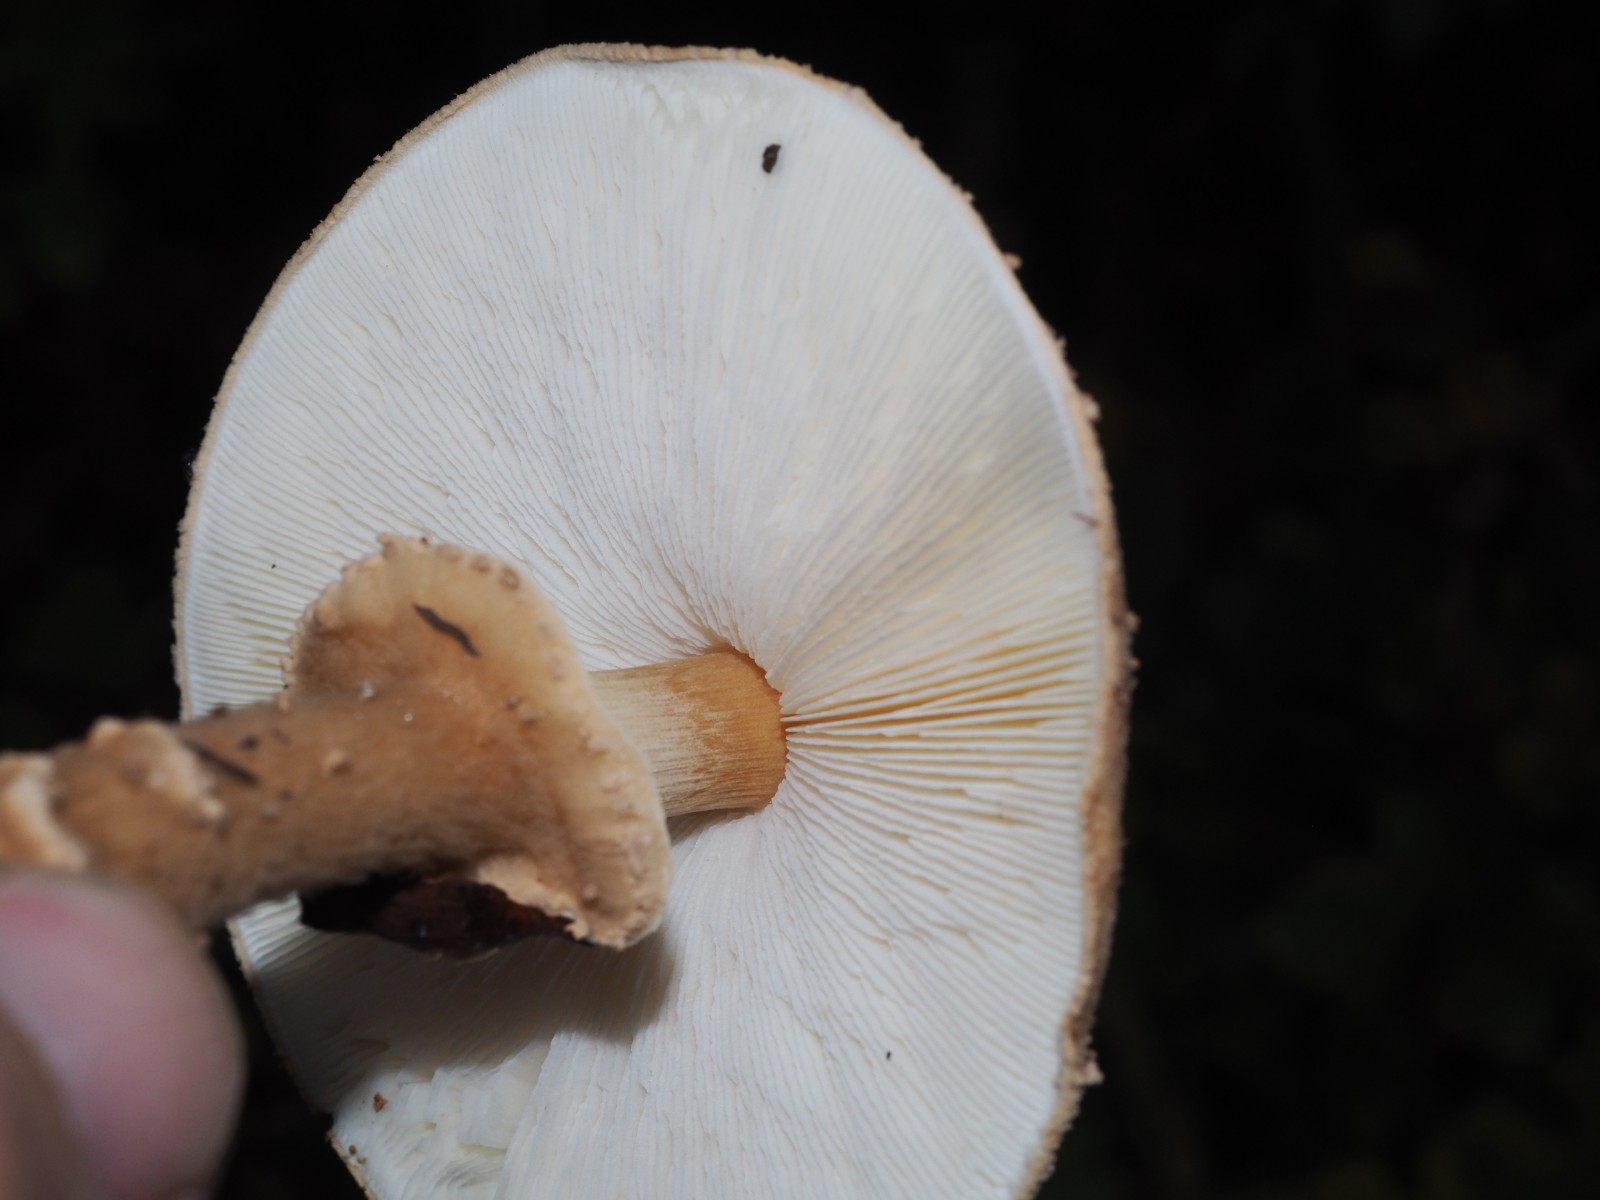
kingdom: Fungi
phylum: Basidiomycota
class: Agaricomycetes
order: Agaricales
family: Agaricaceae
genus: Echinoderma
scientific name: Echinoderma asperum
